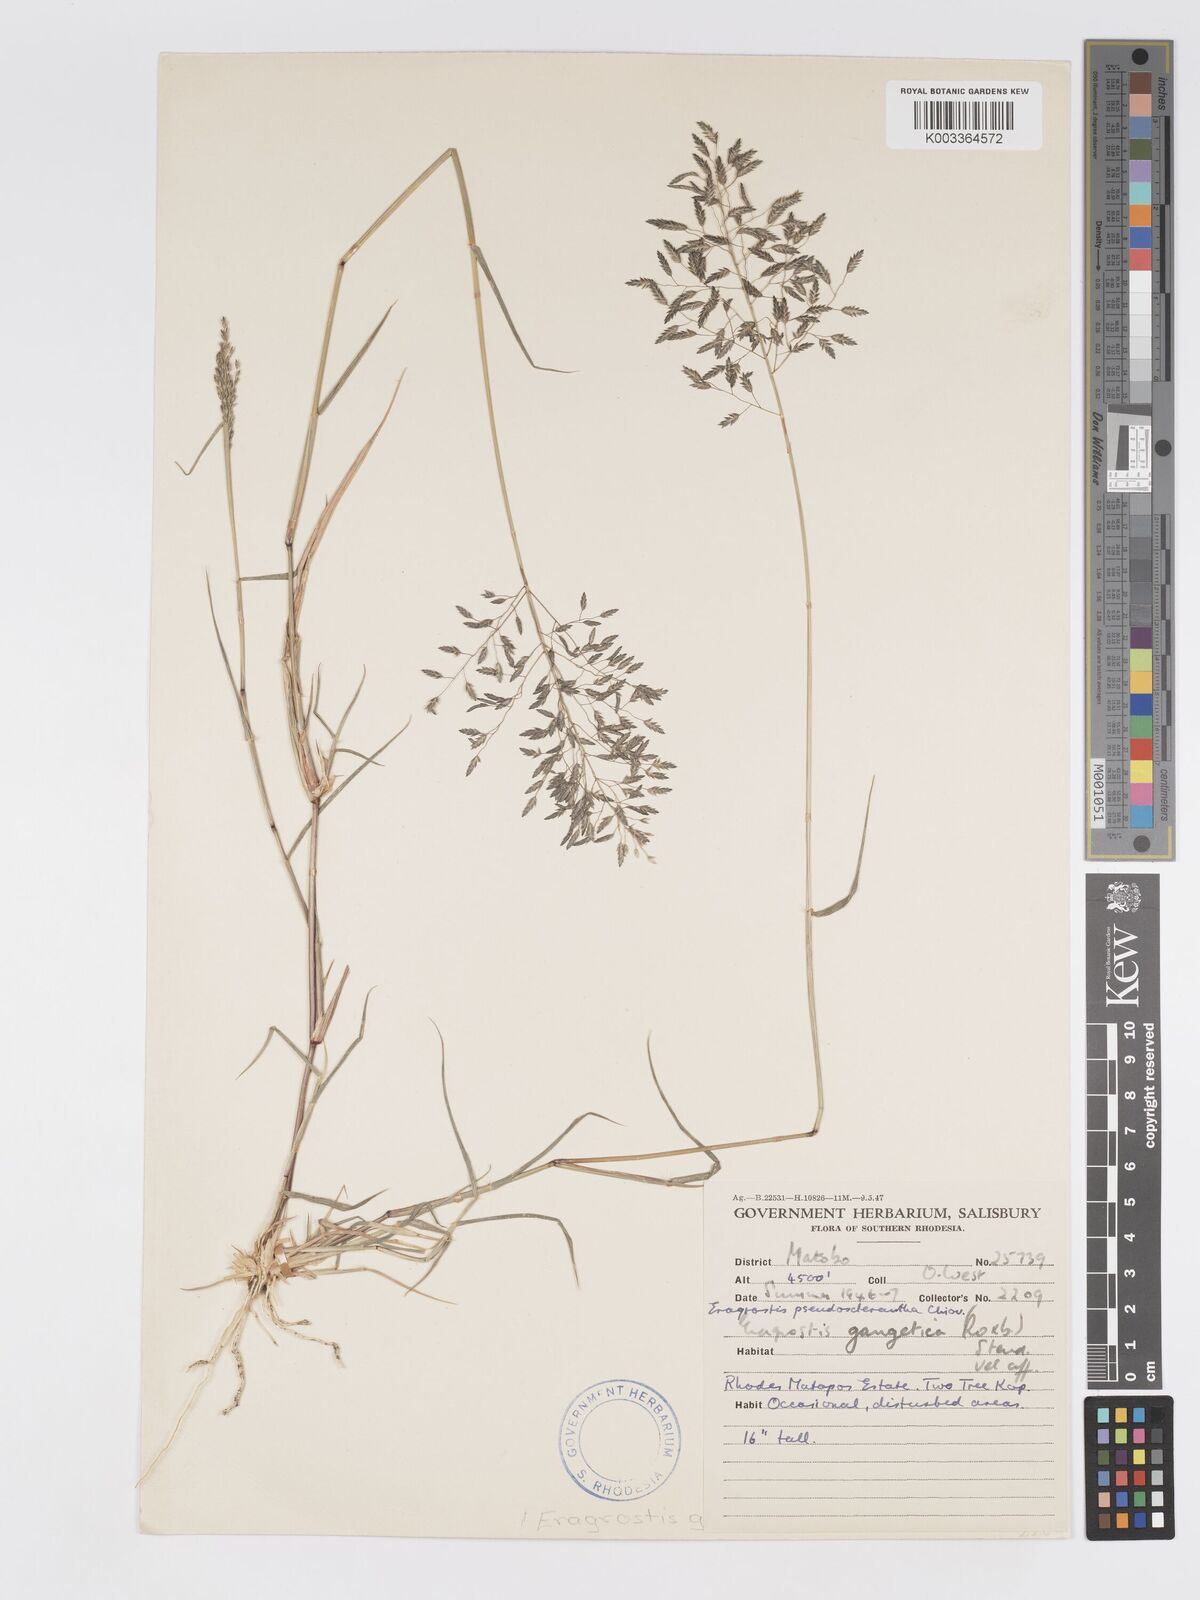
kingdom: Plantae
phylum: Tracheophyta
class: Liliopsida
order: Poales
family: Poaceae
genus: Eragrostis
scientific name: Eragrostis patentipilosa
